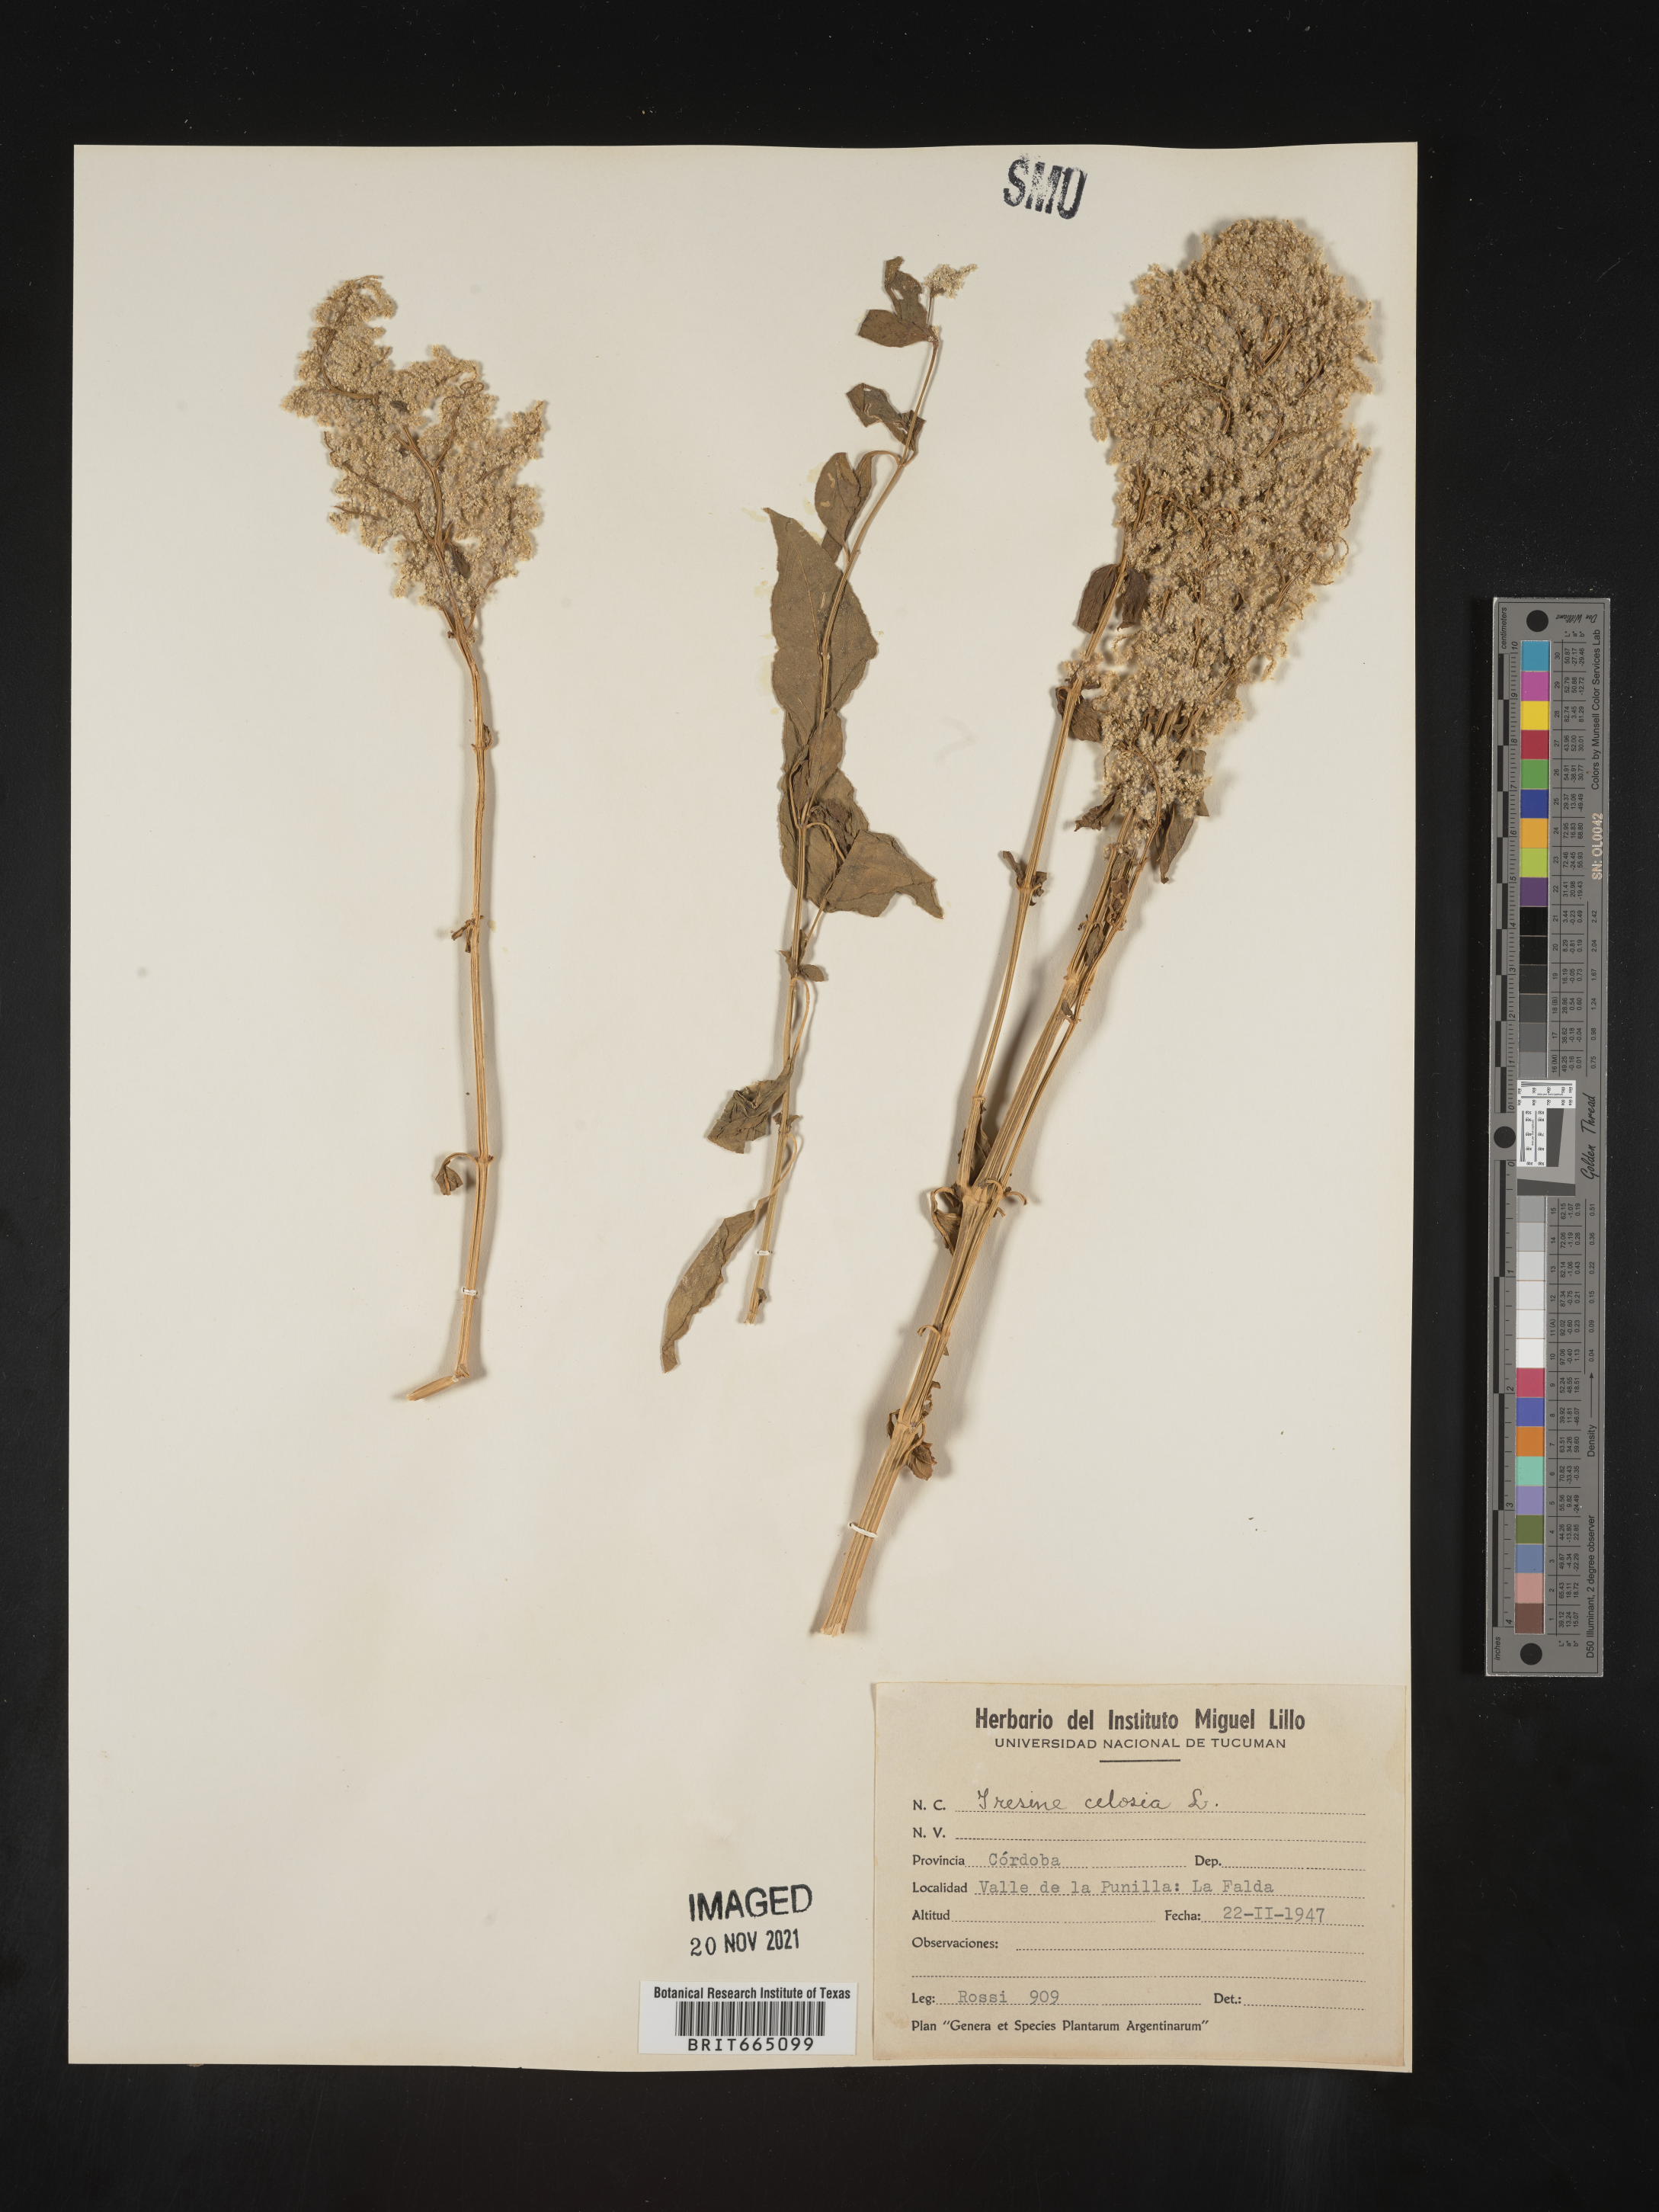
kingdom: Plantae
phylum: Tracheophyta
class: Magnoliopsida
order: Caryophyllales
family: Amaranthaceae
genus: Iresine
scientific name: Iresine
